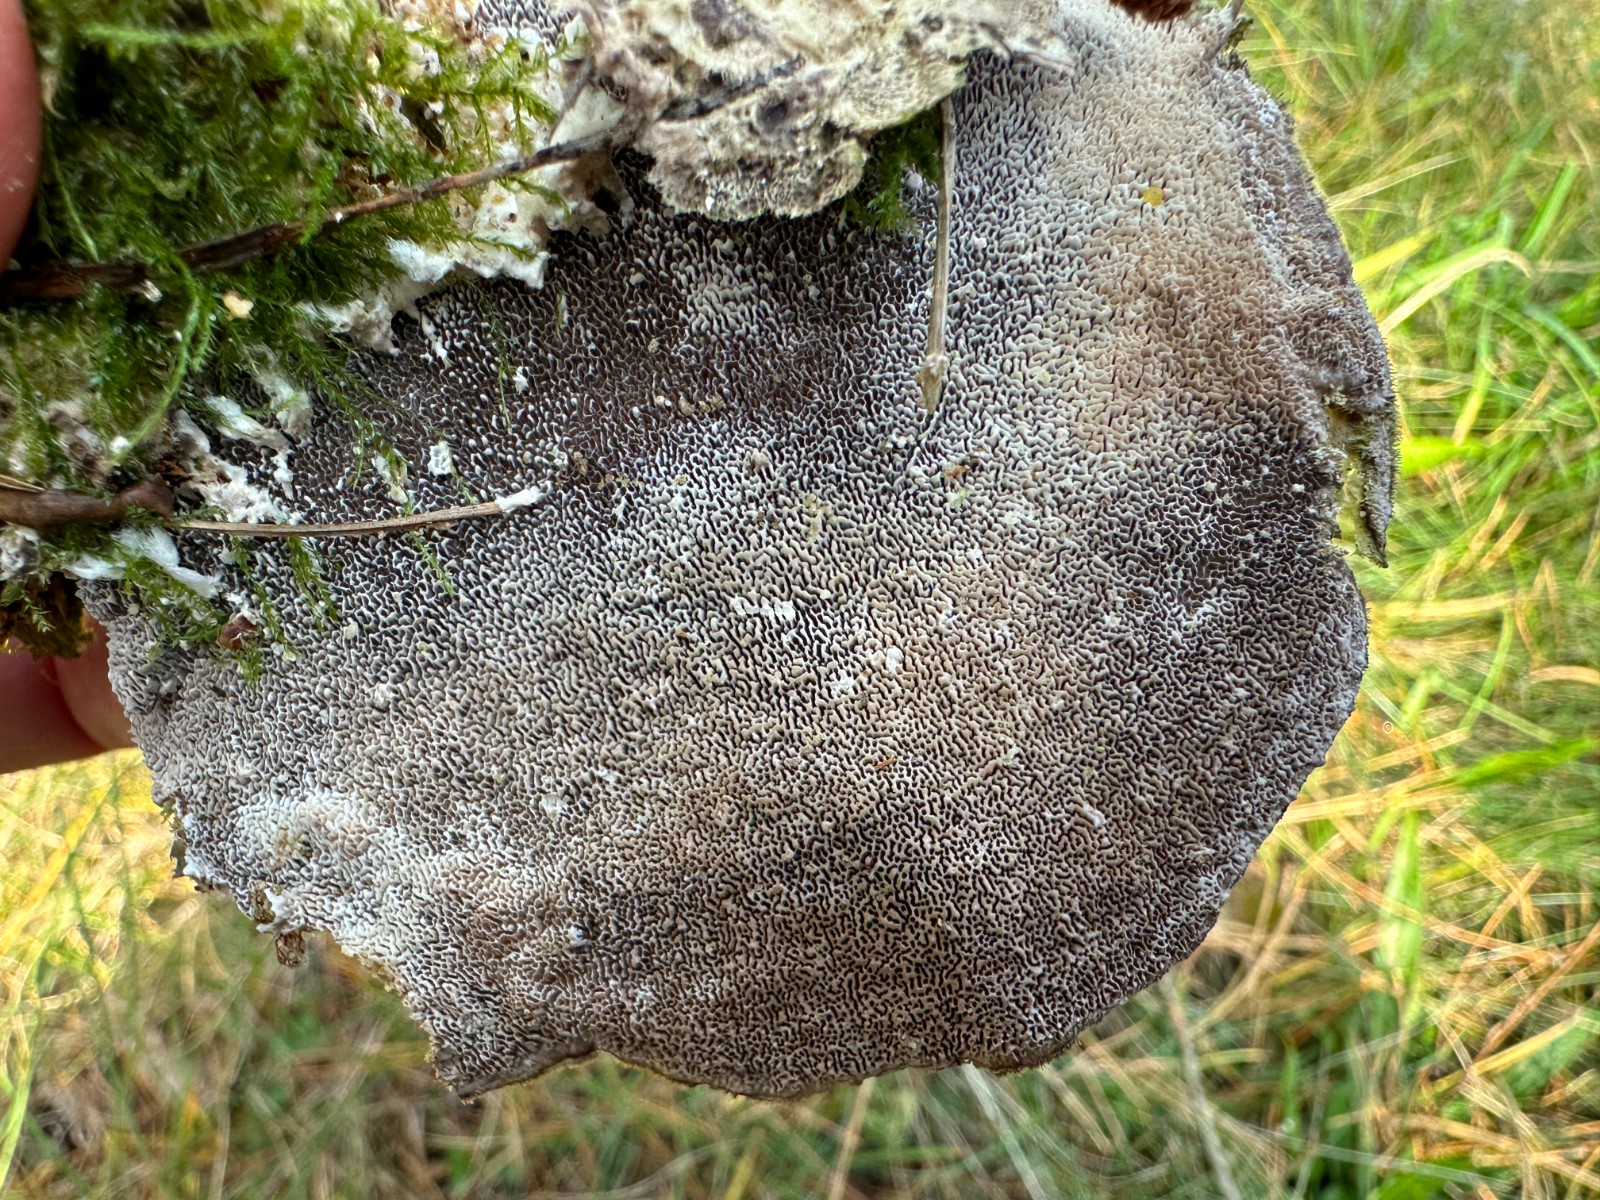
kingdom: Fungi
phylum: Basidiomycota
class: Agaricomycetes
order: Polyporales
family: Cerrenaceae
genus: Cerrena
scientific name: Cerrena unicolor
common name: ensfarvet læderporesvamp
